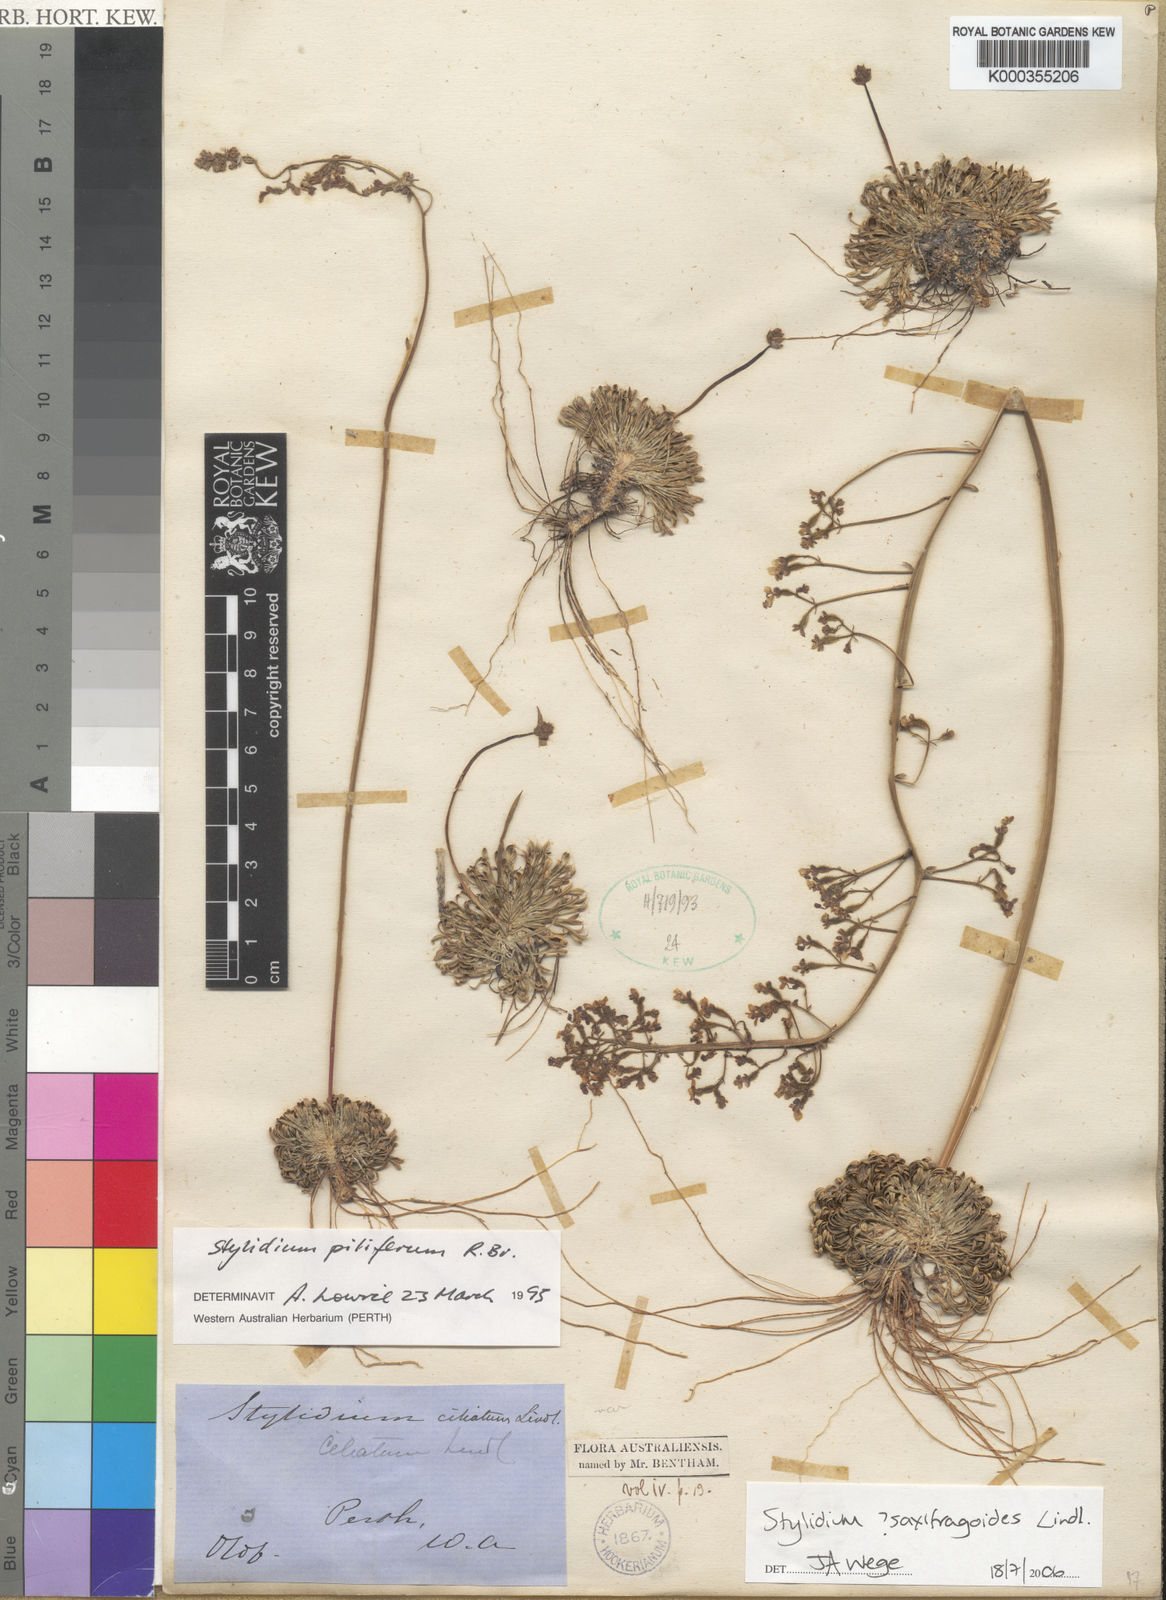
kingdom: Plantae
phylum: Tracheophyta
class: Magnoliopsida
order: Asterales
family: Stylidiaceae
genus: Stylidium
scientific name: Stylidium piliferum
